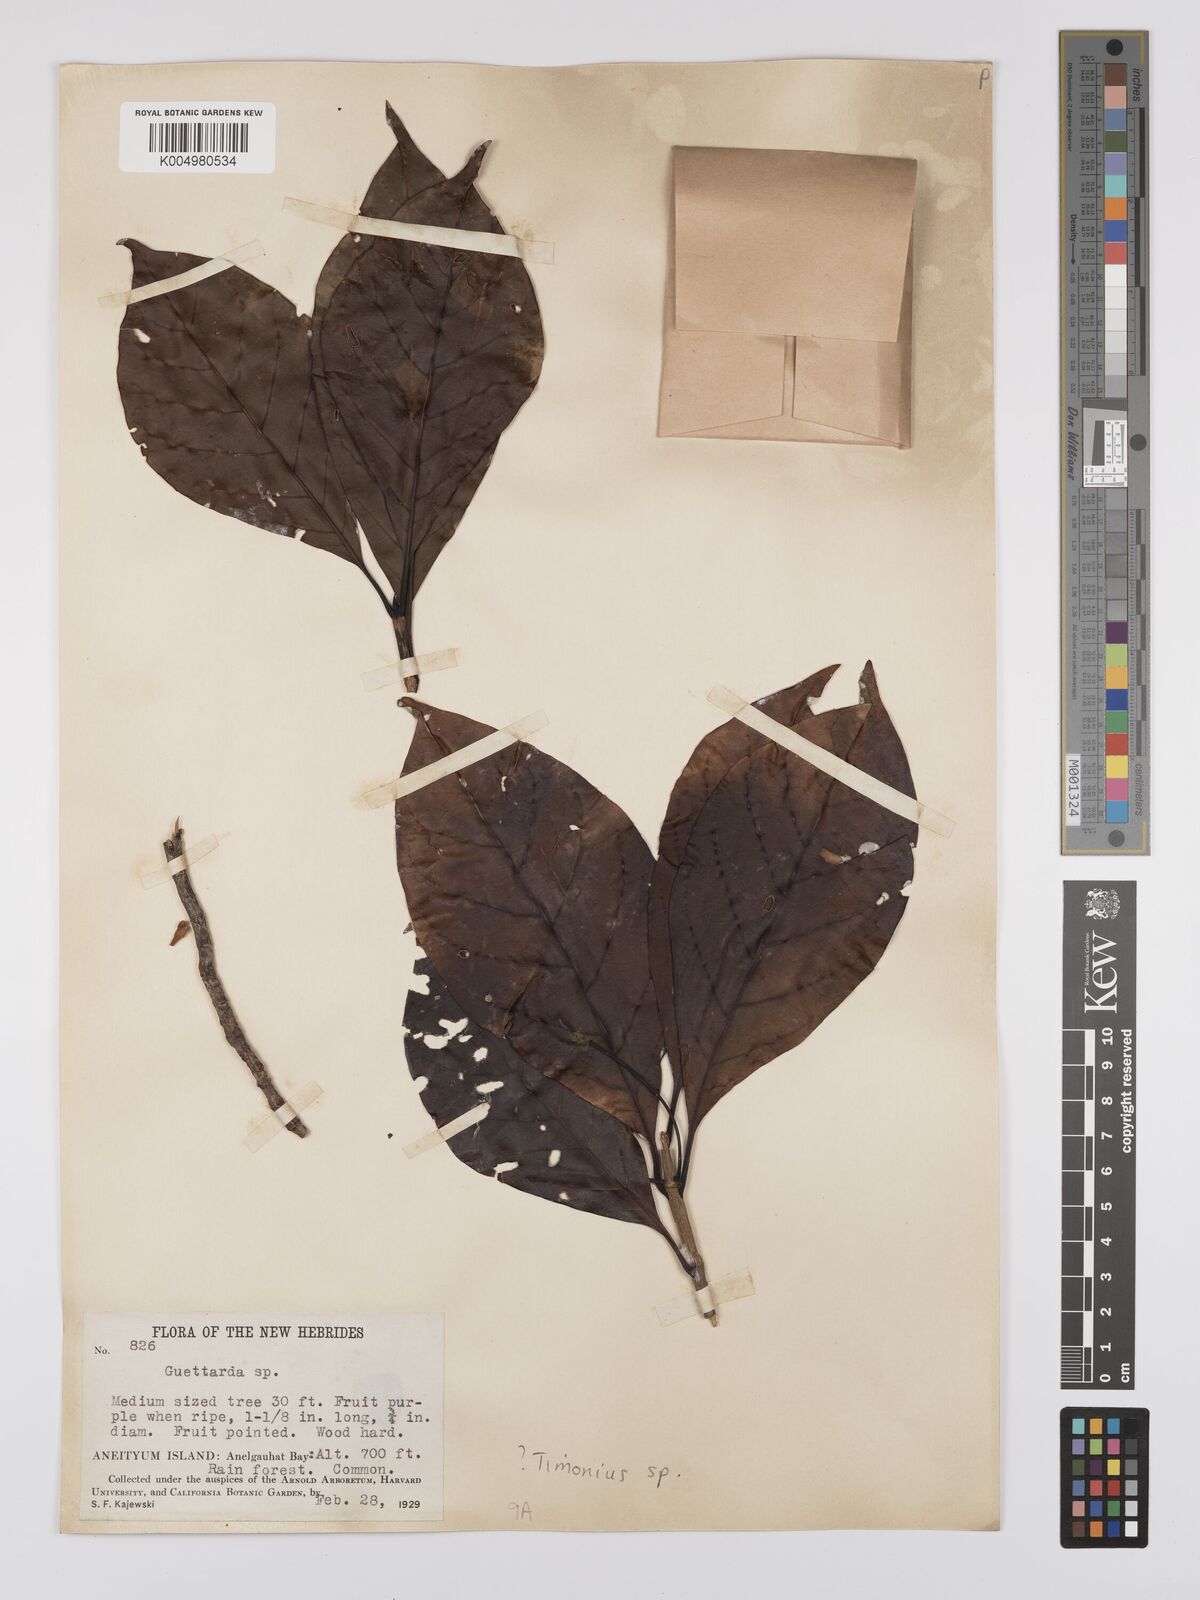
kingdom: Plantae
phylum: Tracheophyta
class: Magnoliopsida
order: Gentianales
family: Rubiaceae
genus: Timonius
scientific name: Timonius
